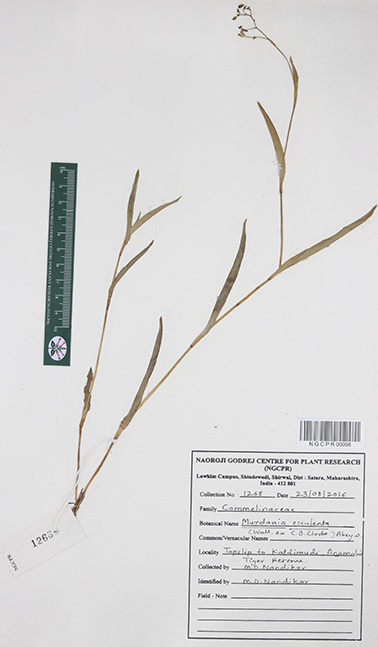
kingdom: Plantae
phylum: Tracheophyta
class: Liliopsida
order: Commelinales
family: Commelinaceae
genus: Murdannia
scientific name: Murdannia esculenta
